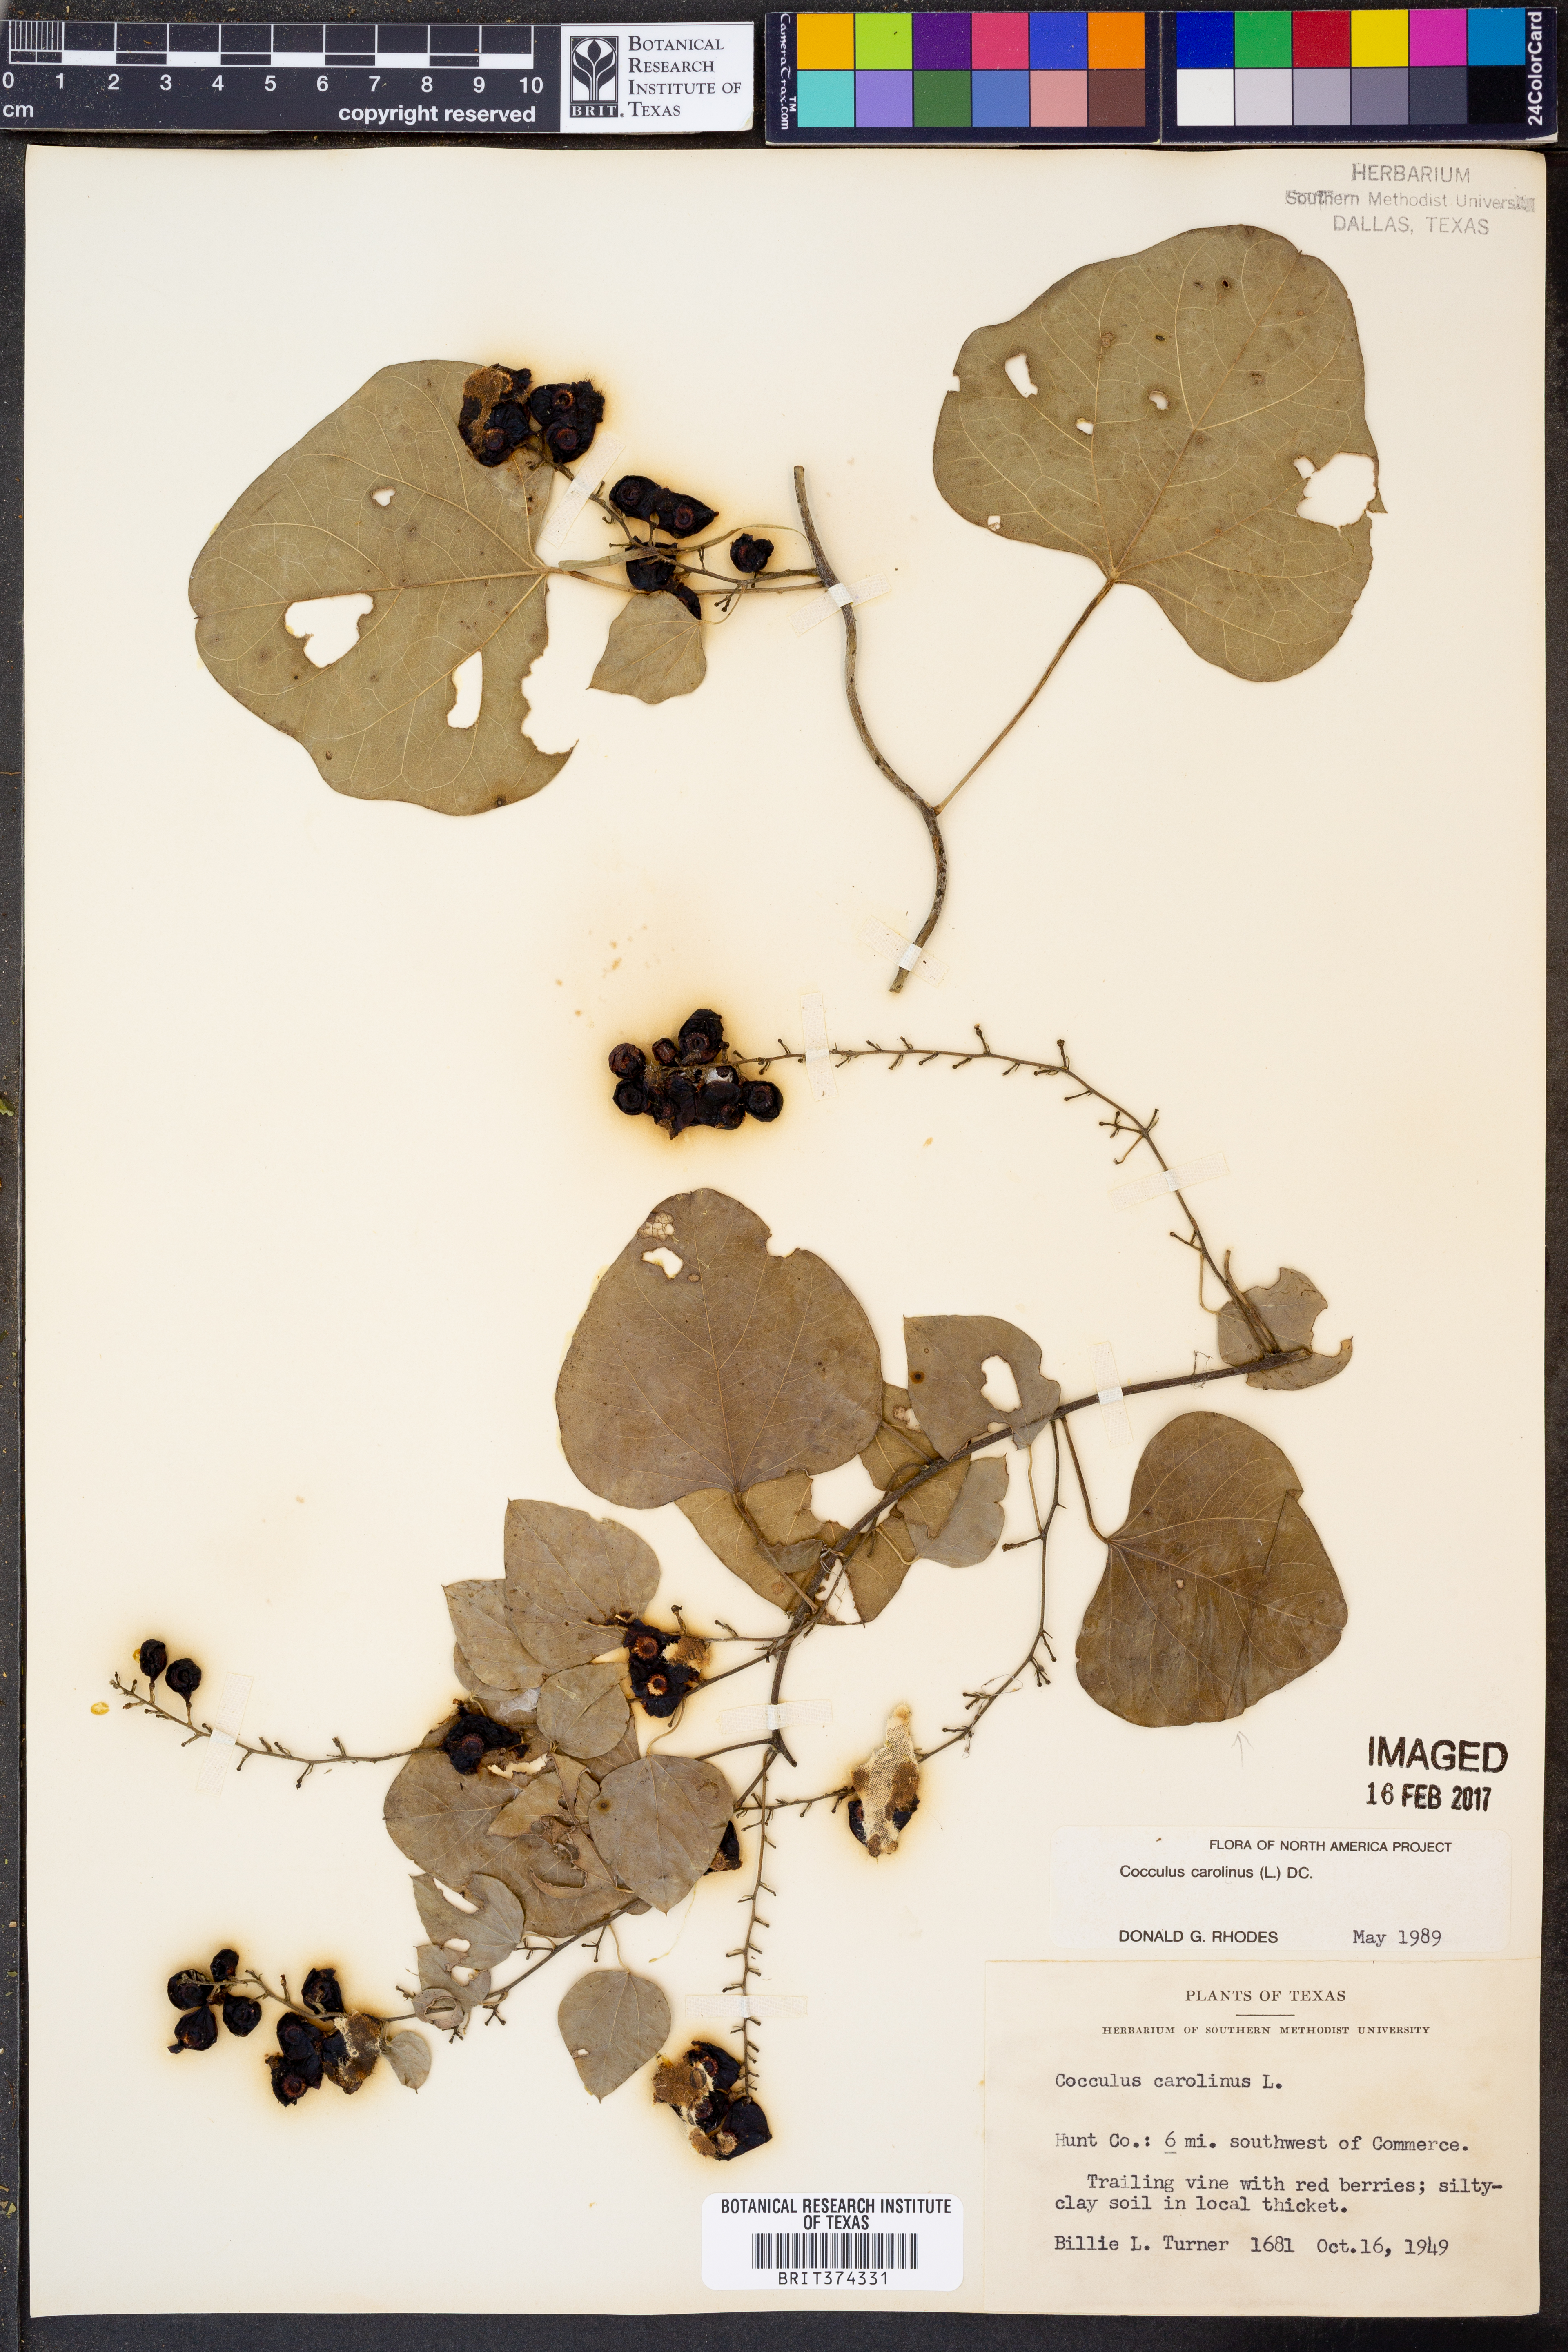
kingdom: Plantae
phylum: Tracheophyta
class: Magnoliopsida
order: Ranunculales
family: Menispermaceae
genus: Cocculus
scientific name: Cocculus carolinus
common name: Carolina moonseed
